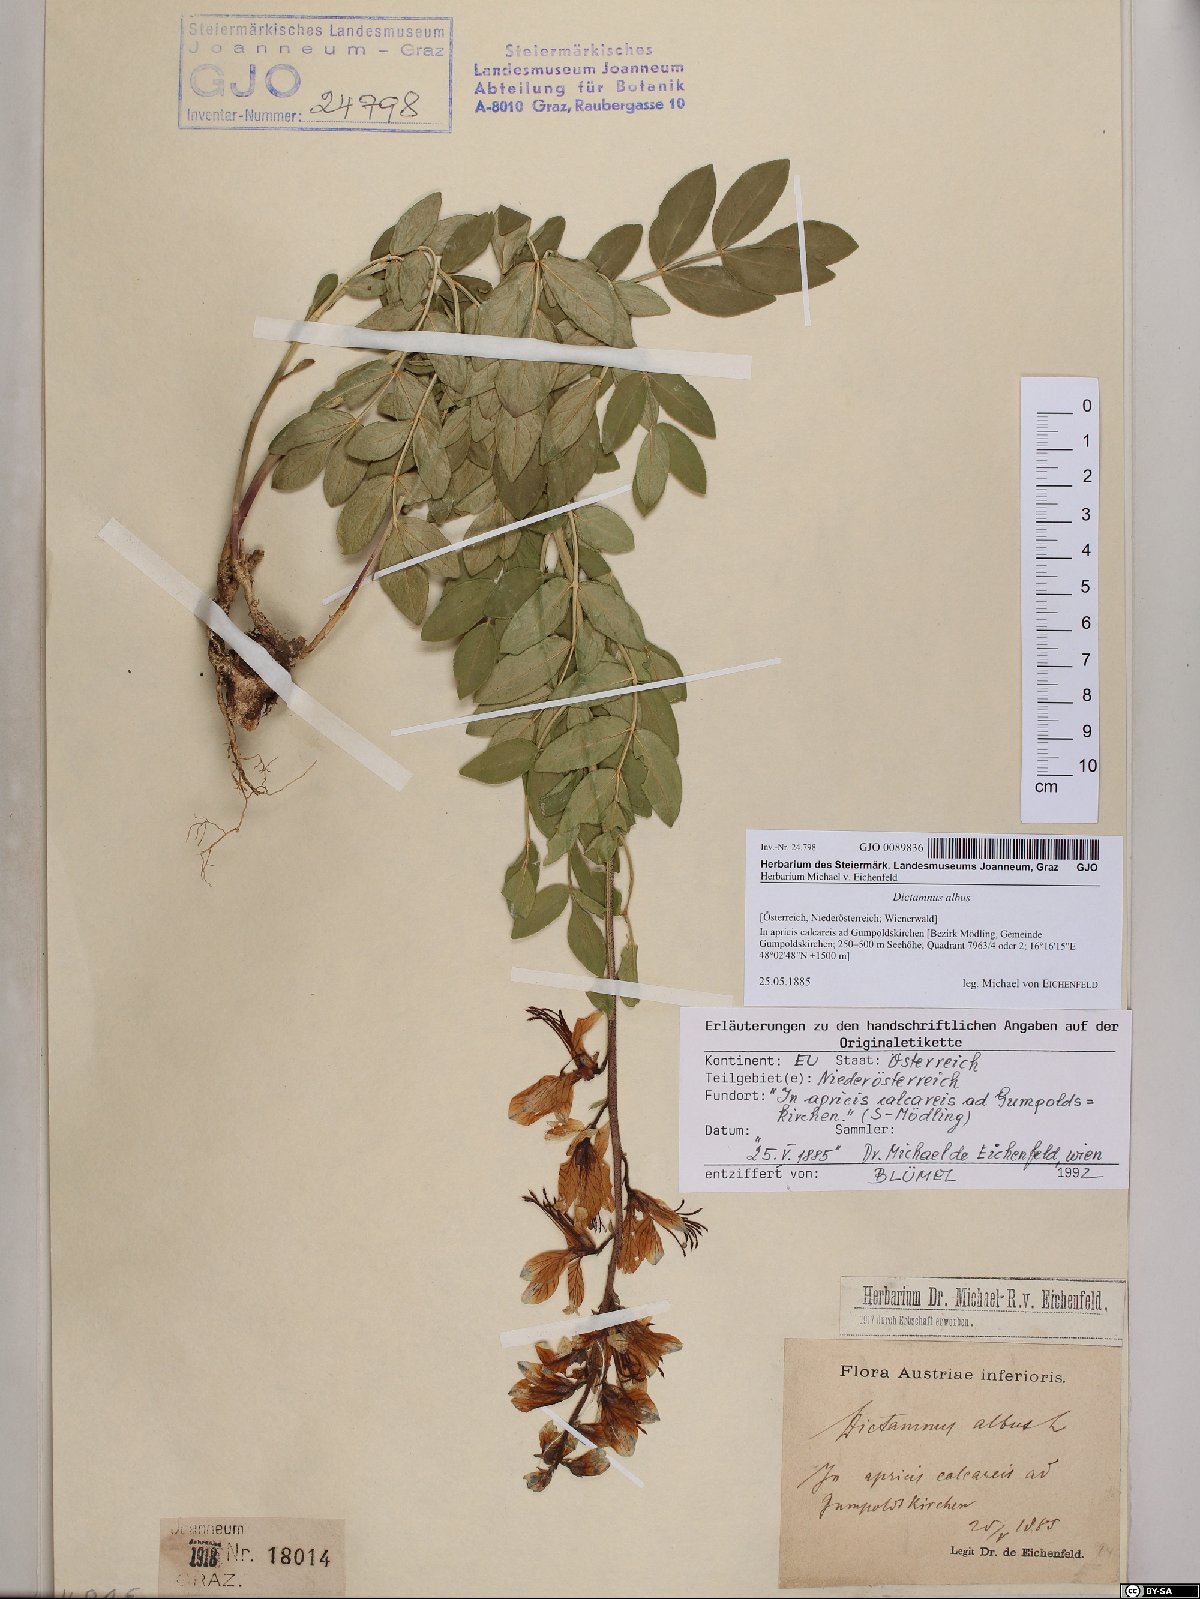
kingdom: Plantae
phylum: Tracheophyta
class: Magnoliopsida
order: Sapindales
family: Rutaceae
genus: Dictamnus
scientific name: Dictamnus albus
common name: Gasplant
